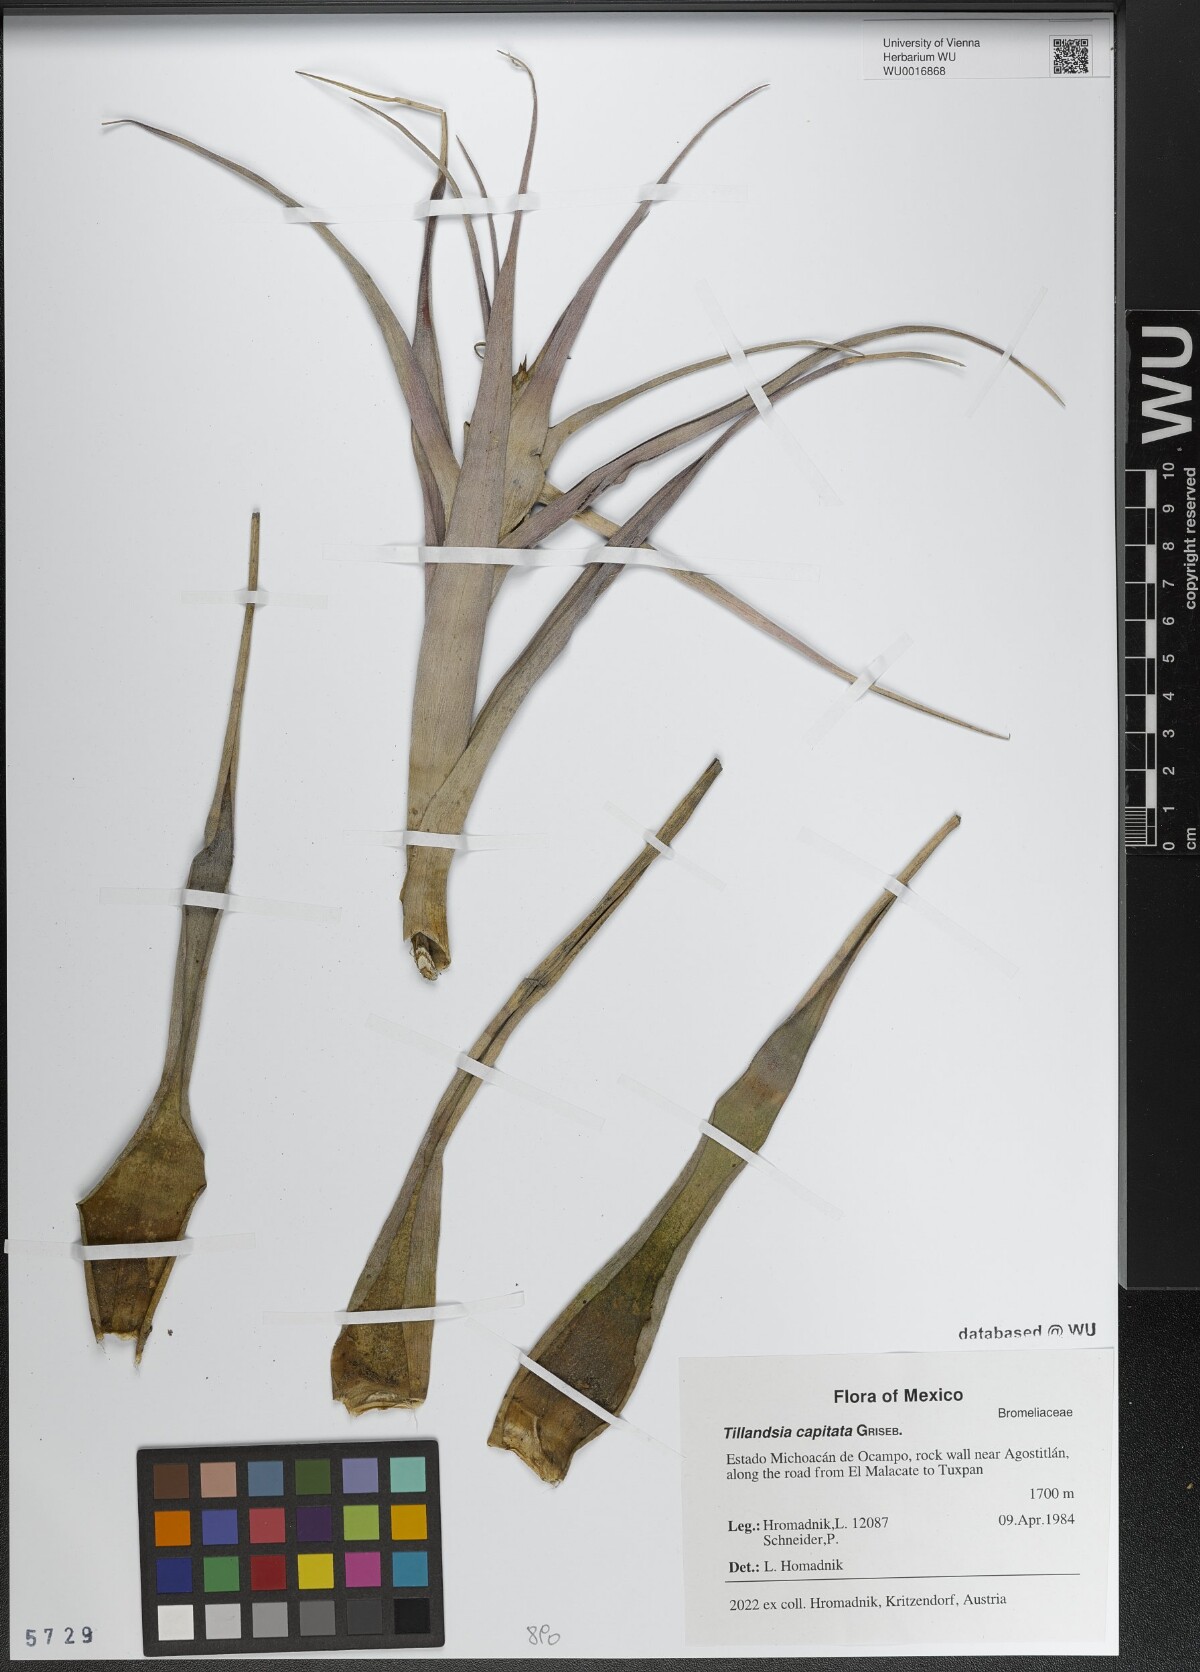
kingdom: Plantae
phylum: Tracheophyta
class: Liliopsida
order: Poales
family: Bromeliaceae
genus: Tillandsia
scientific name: Tillandsia capitata
